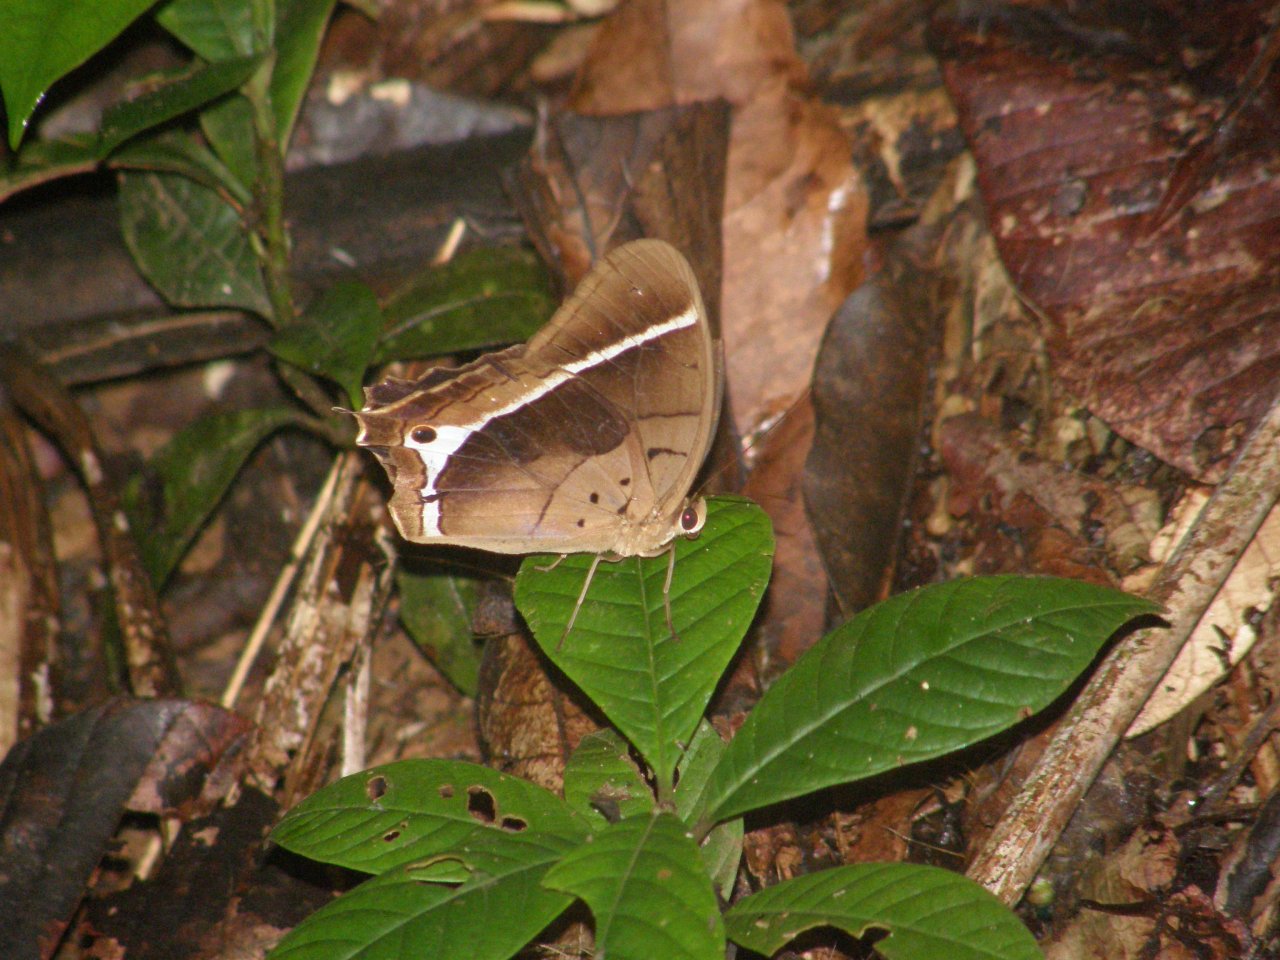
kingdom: Animalia
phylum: Arthropoda
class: Insecta
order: Lepidoptera
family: Nymphalidae
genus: Antirrhea
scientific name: Antirrhea philoctetes
